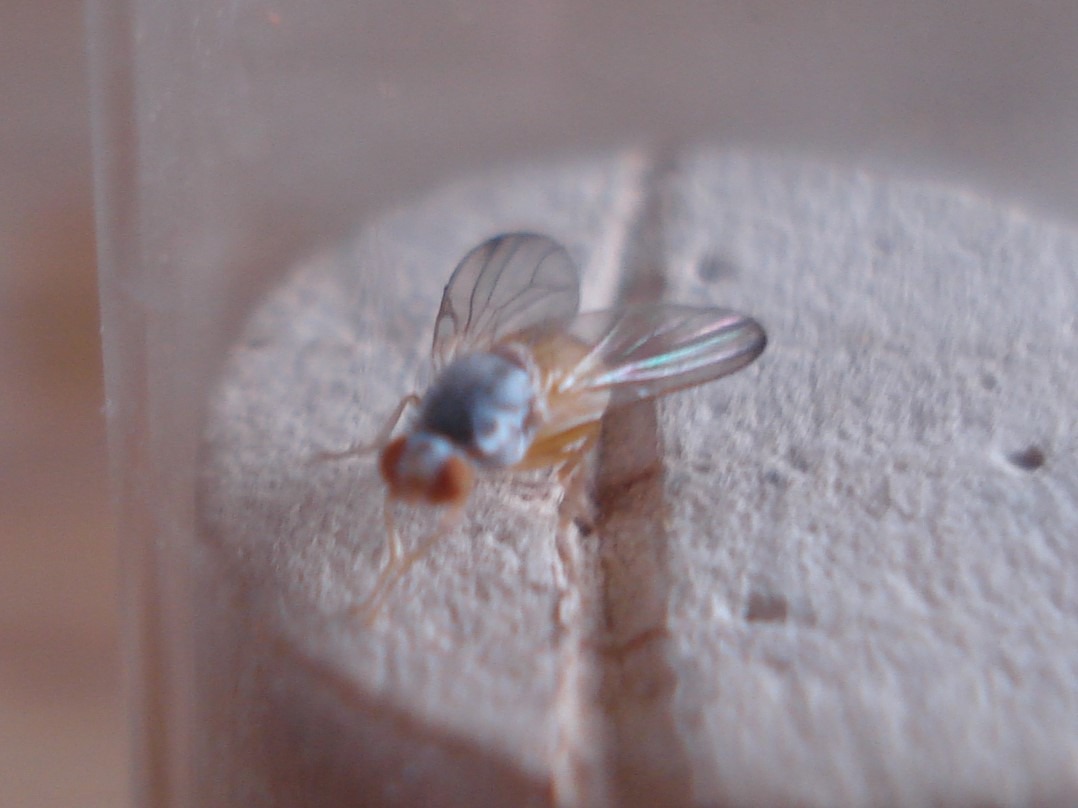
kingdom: Animalia
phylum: Arthropoda
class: Insecta
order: Diptera
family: Pallopteridae
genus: Palloptera
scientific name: Palloptera
